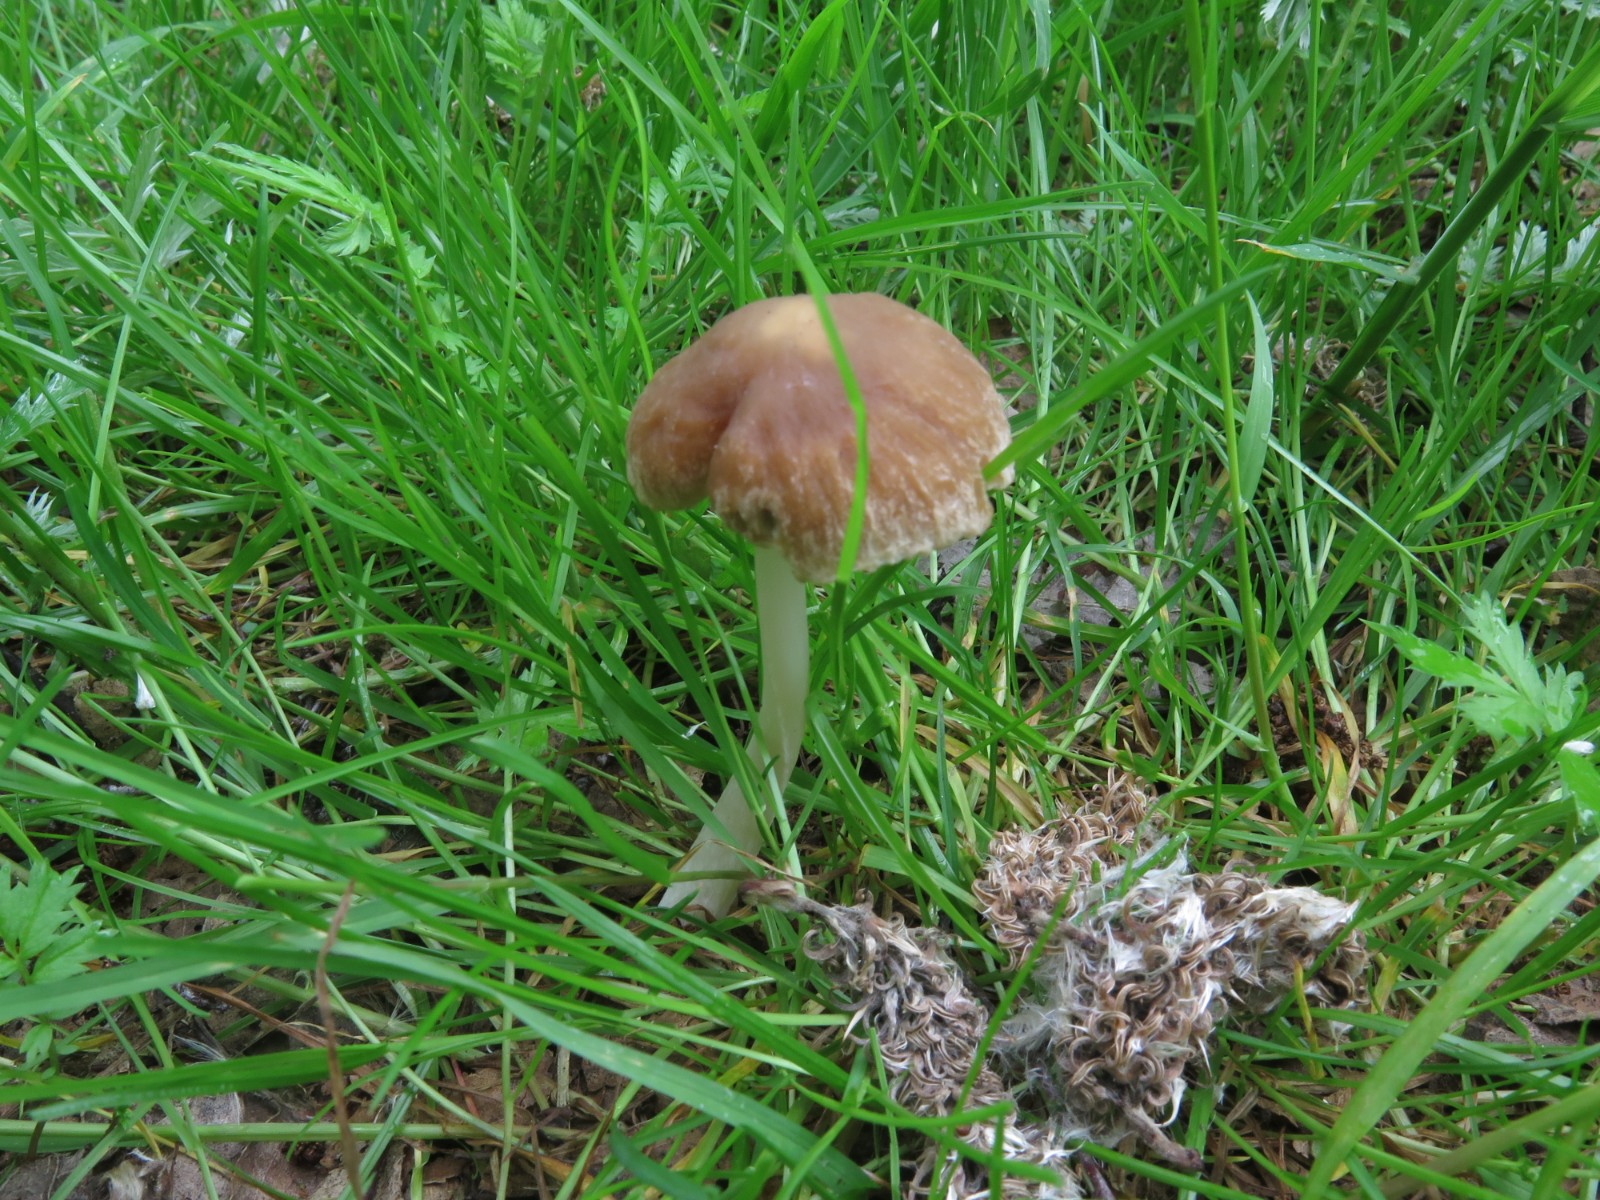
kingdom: Fungi
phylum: Basidiomycota
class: Agaricomycetes
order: Agaricales
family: Psathyrellaceae
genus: Psathyrella
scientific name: Psathyrella spadiceogrisea
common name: gråbrun mørkhat
